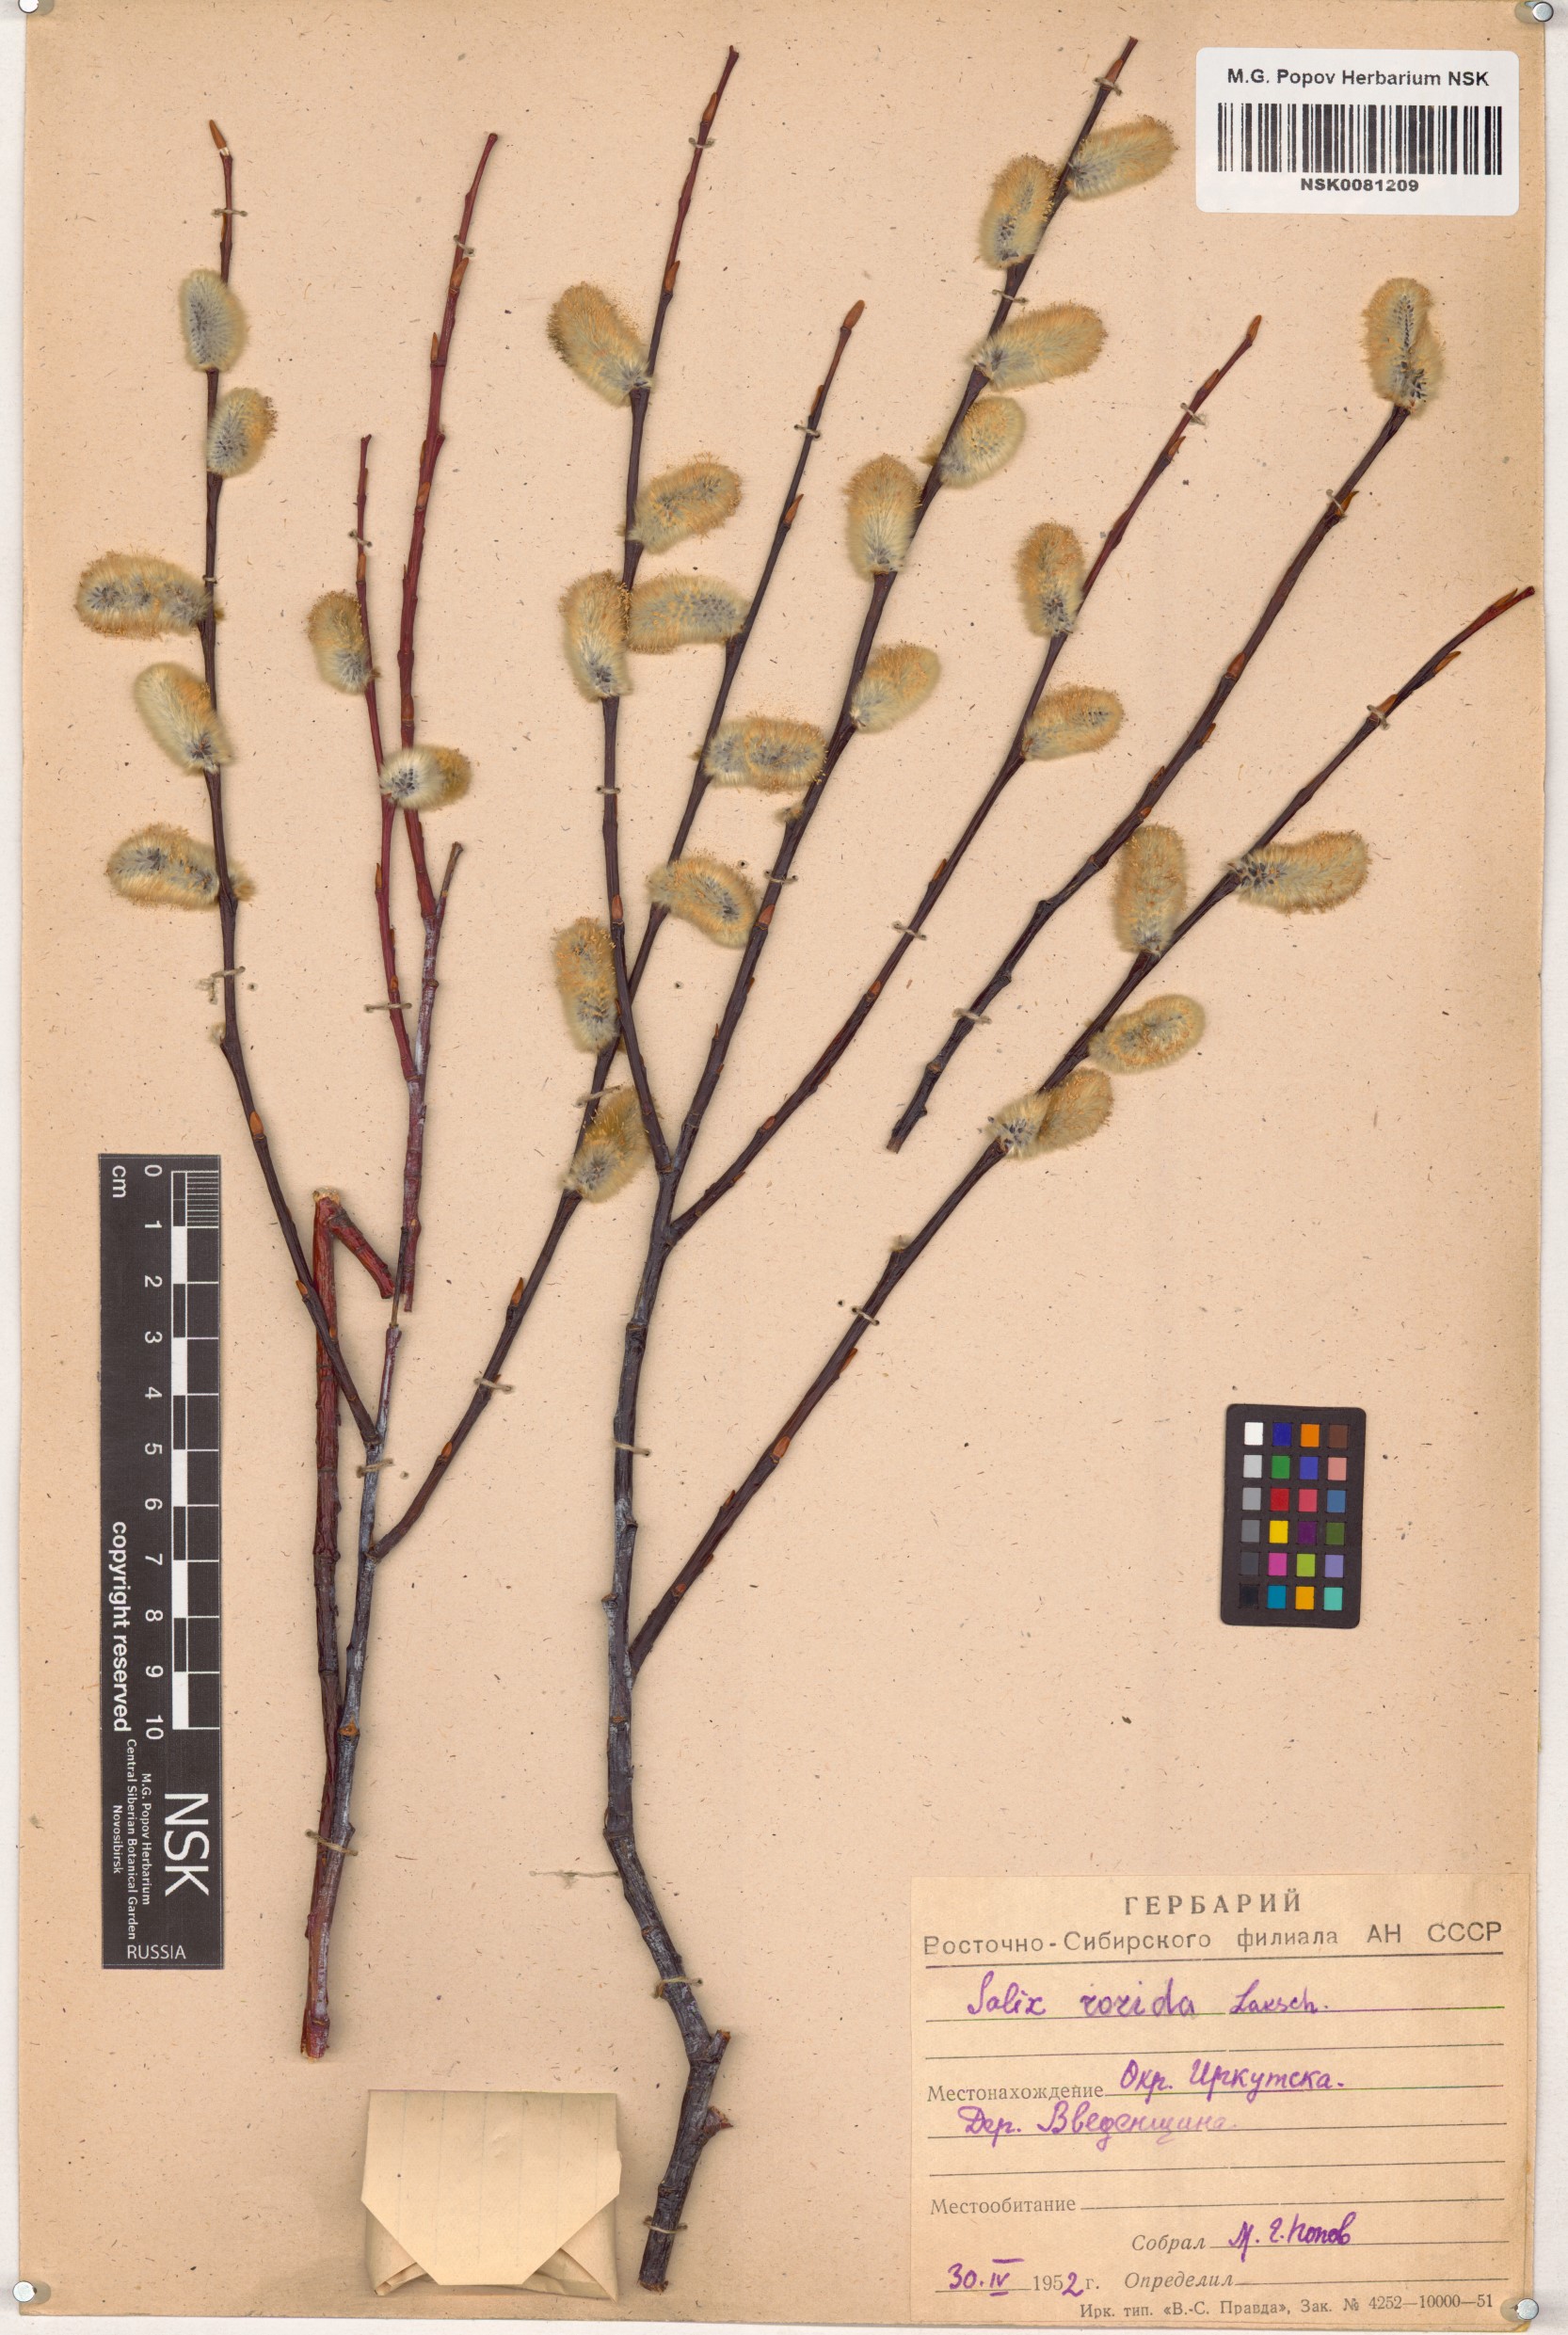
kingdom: Plantae
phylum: Tracheophyta
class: Magnoliopsida
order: Malpighiales
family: Salicaceae
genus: Salix
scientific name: Salix rorida
